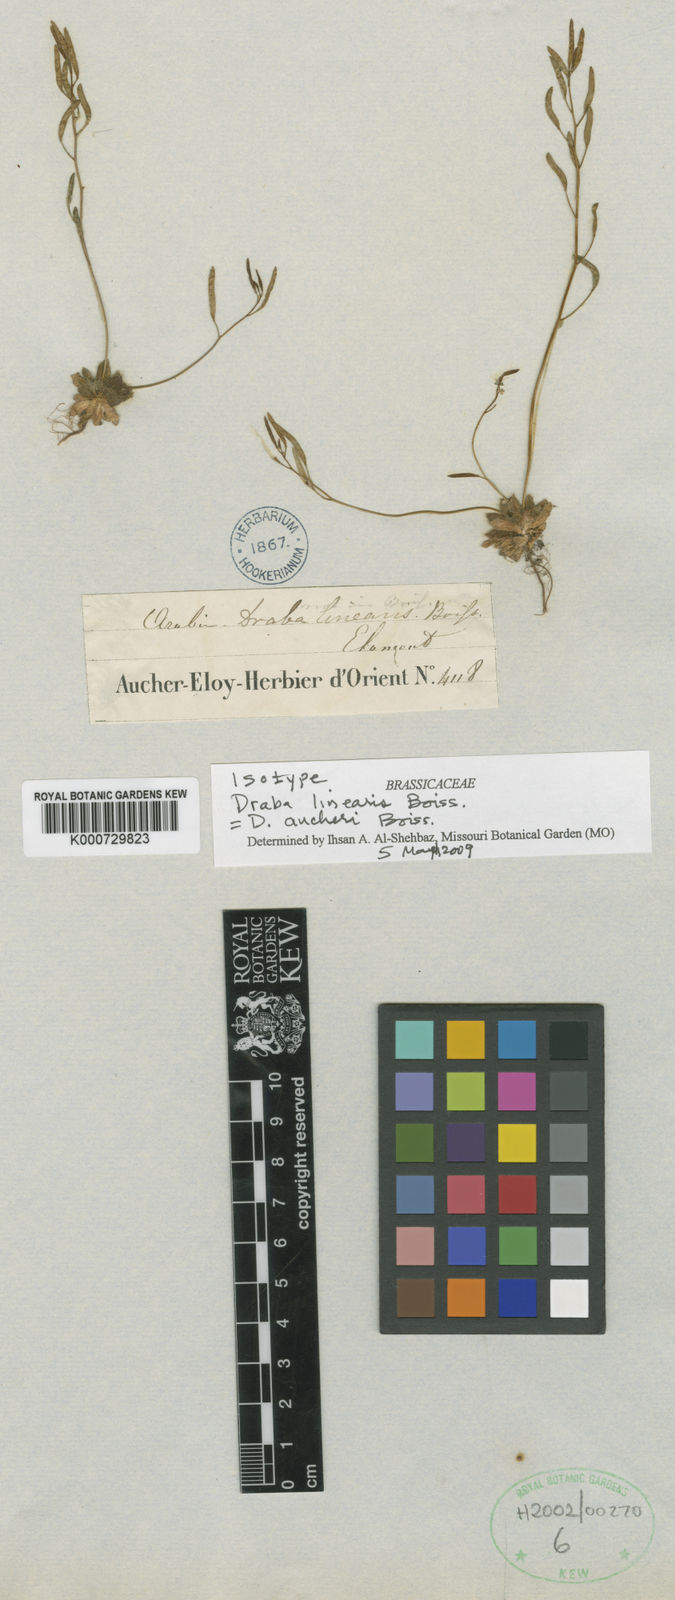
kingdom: Plantae
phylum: Tracheophyta
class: Magnoliopsida
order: Brassicales
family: Brassicaceae
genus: Draba
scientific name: Draba aucheri
